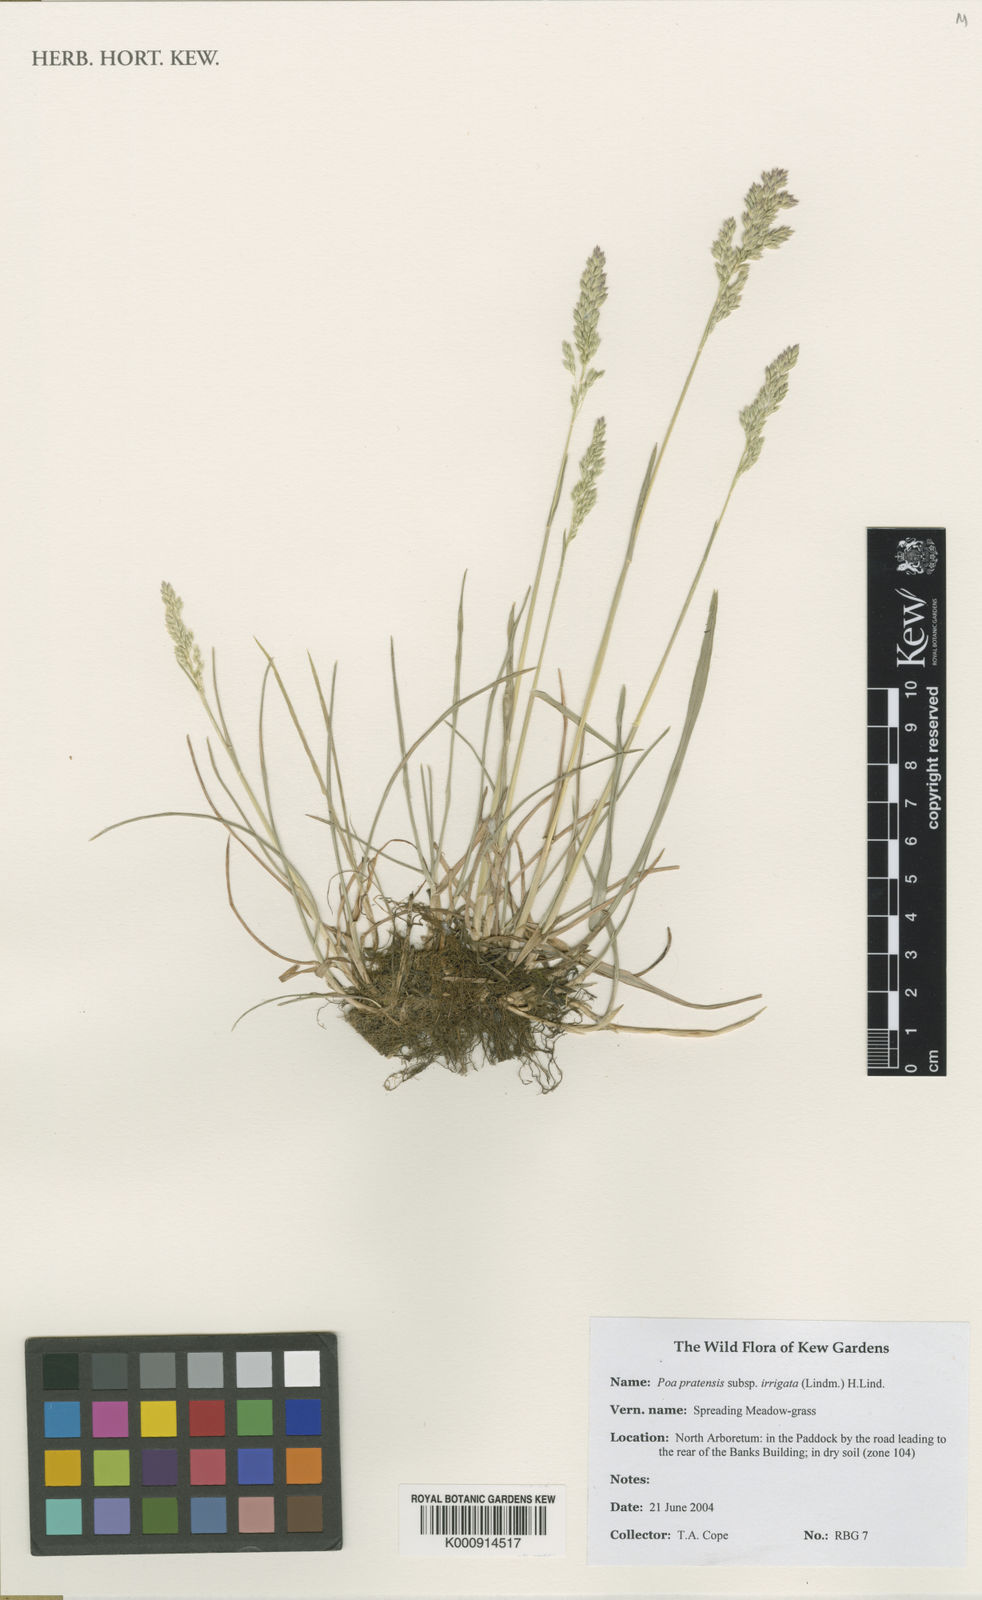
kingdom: Plantae
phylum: Tracheophyta
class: Liliopsida
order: Poales
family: Poaceae
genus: Poa
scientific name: Poa
